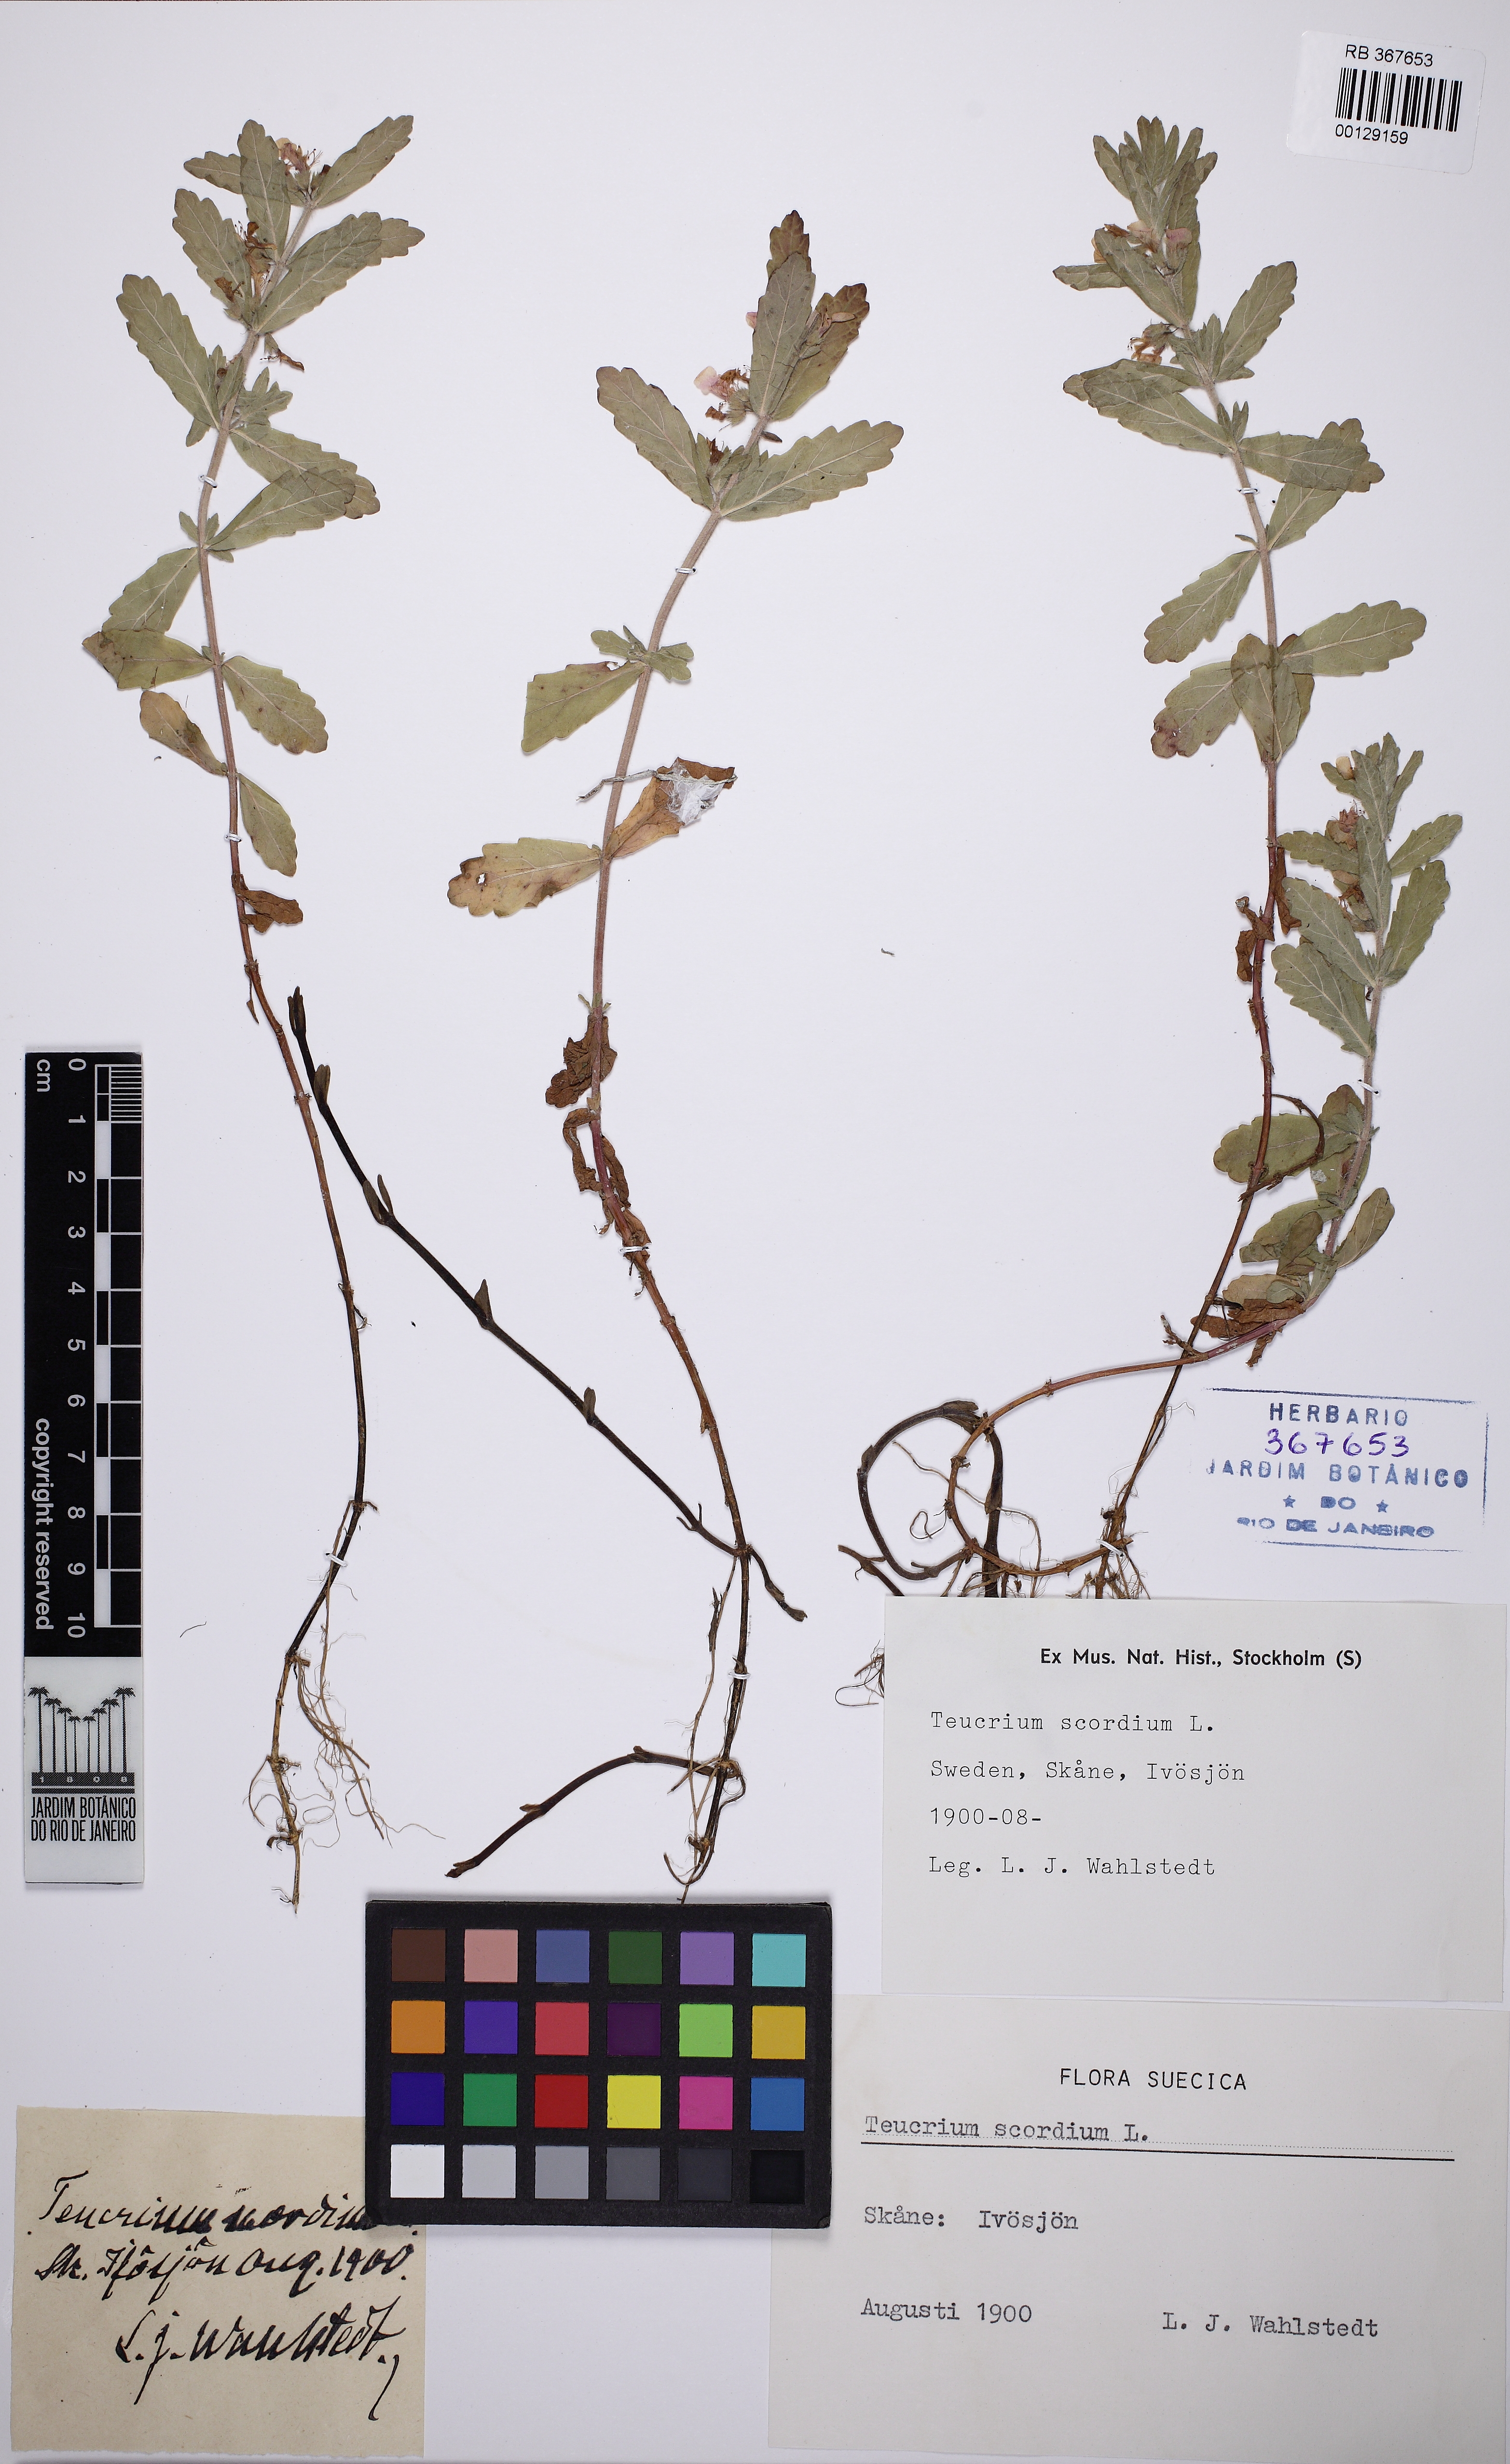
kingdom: Plantae
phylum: Tracheophyta
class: Magnoliopsida
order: Lamiales
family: Lamiaceae
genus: Teucrium
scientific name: Teucrium scordium
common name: Water germander
